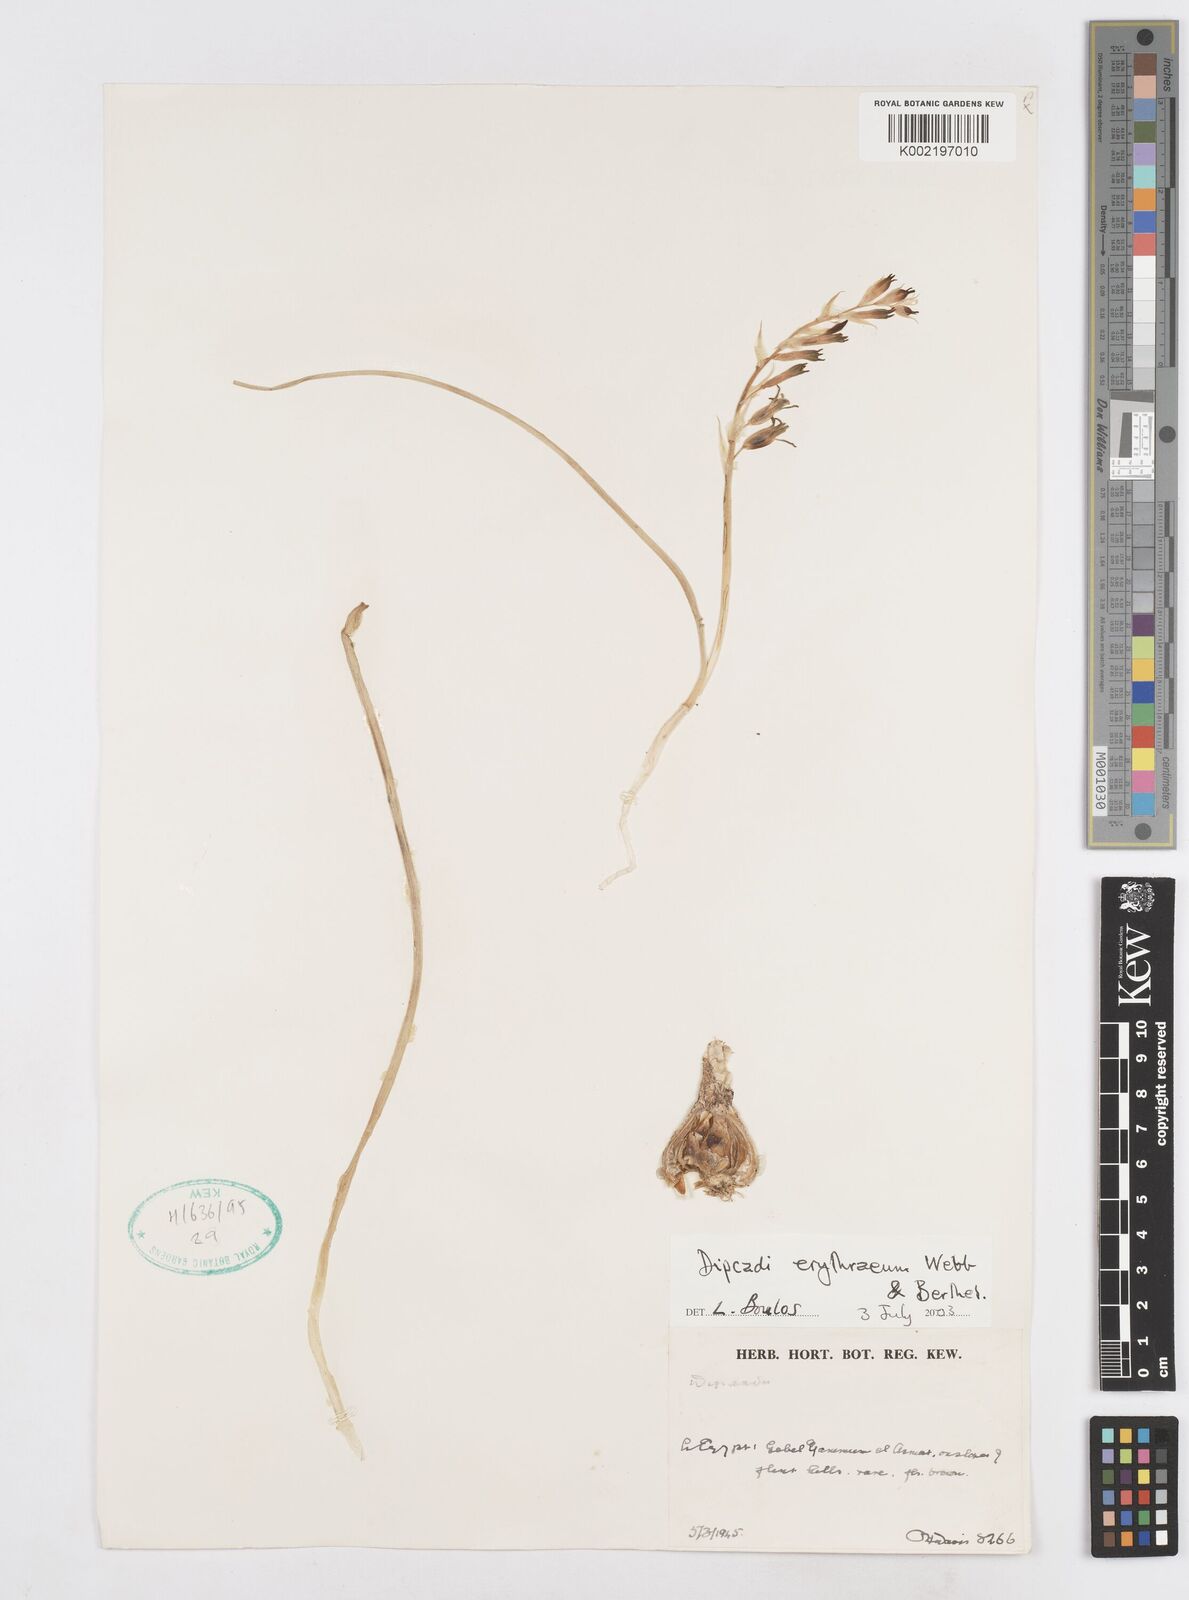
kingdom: Plantae
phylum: Tracheophyta
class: Liliopsida
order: Asparagales
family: Asparagaceae
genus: Dipcadi
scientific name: Dipcadi erythraeum
